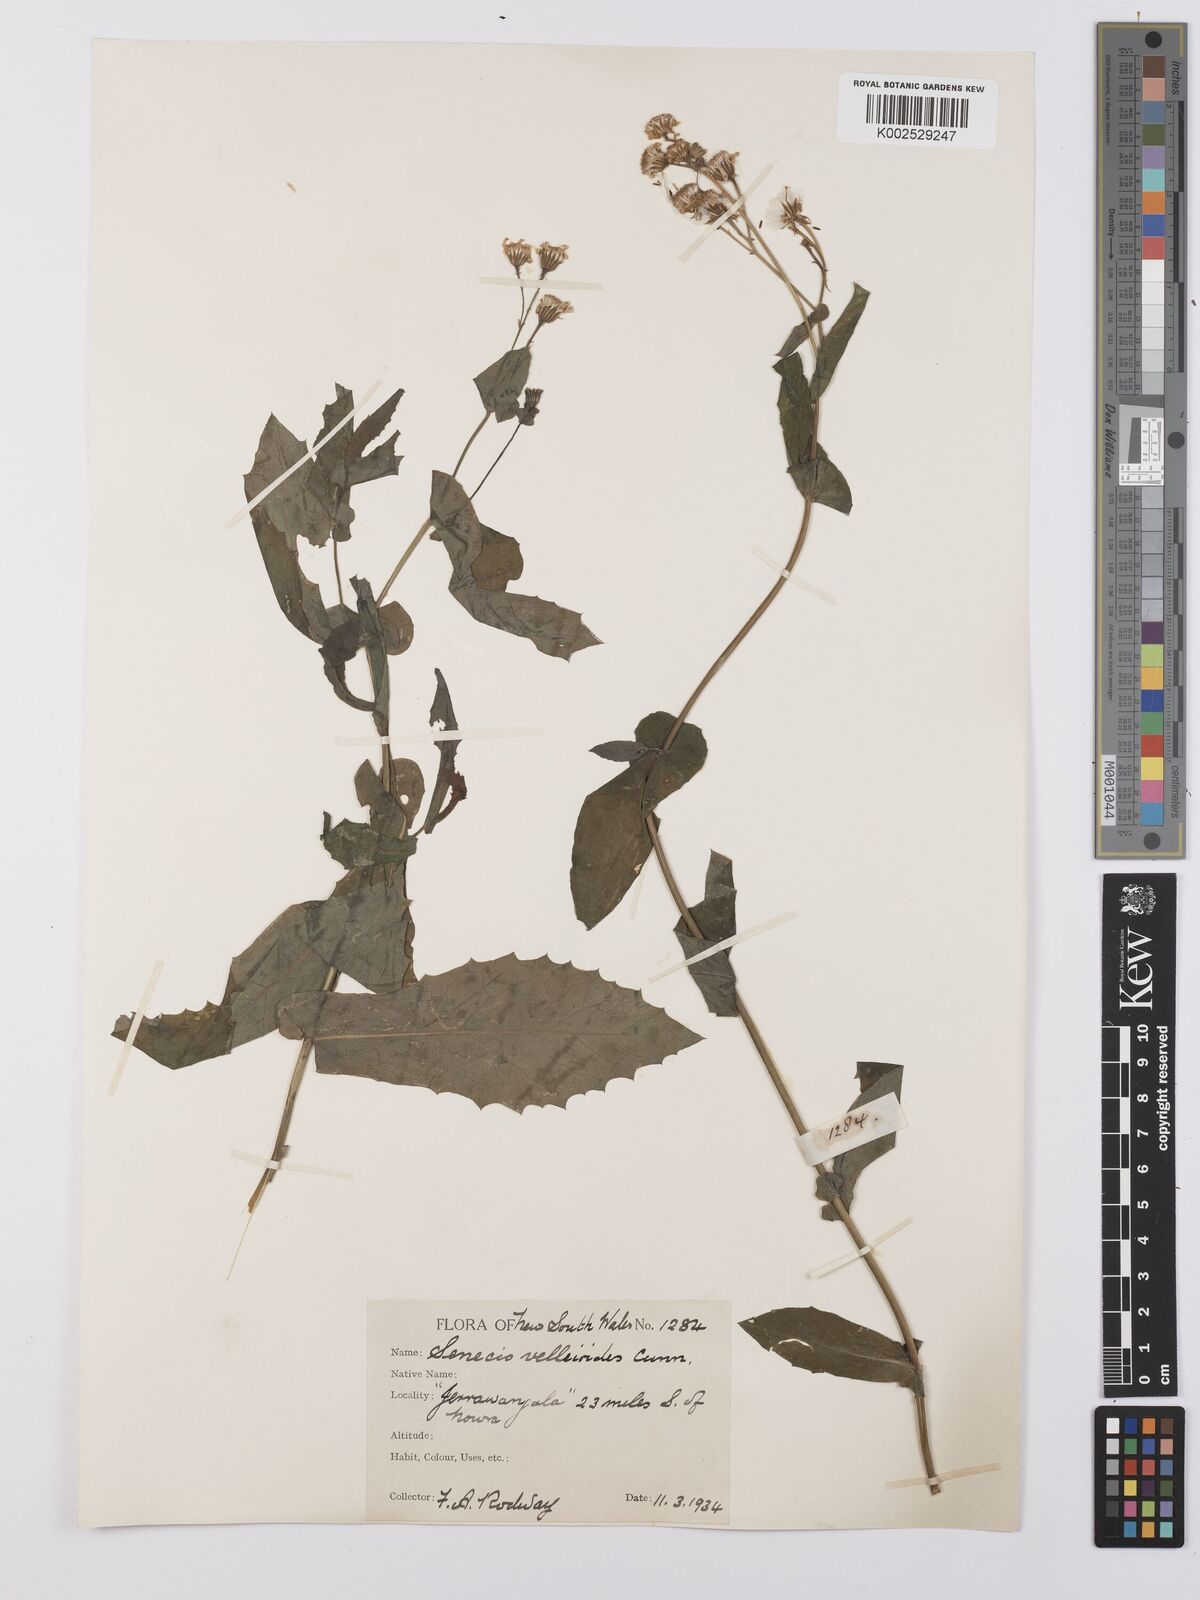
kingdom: Plantae
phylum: Tracheophyta
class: Magnoliopsida
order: Asterales
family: Asteraceae
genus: Lordhowea
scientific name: Lordhowea velleioides
